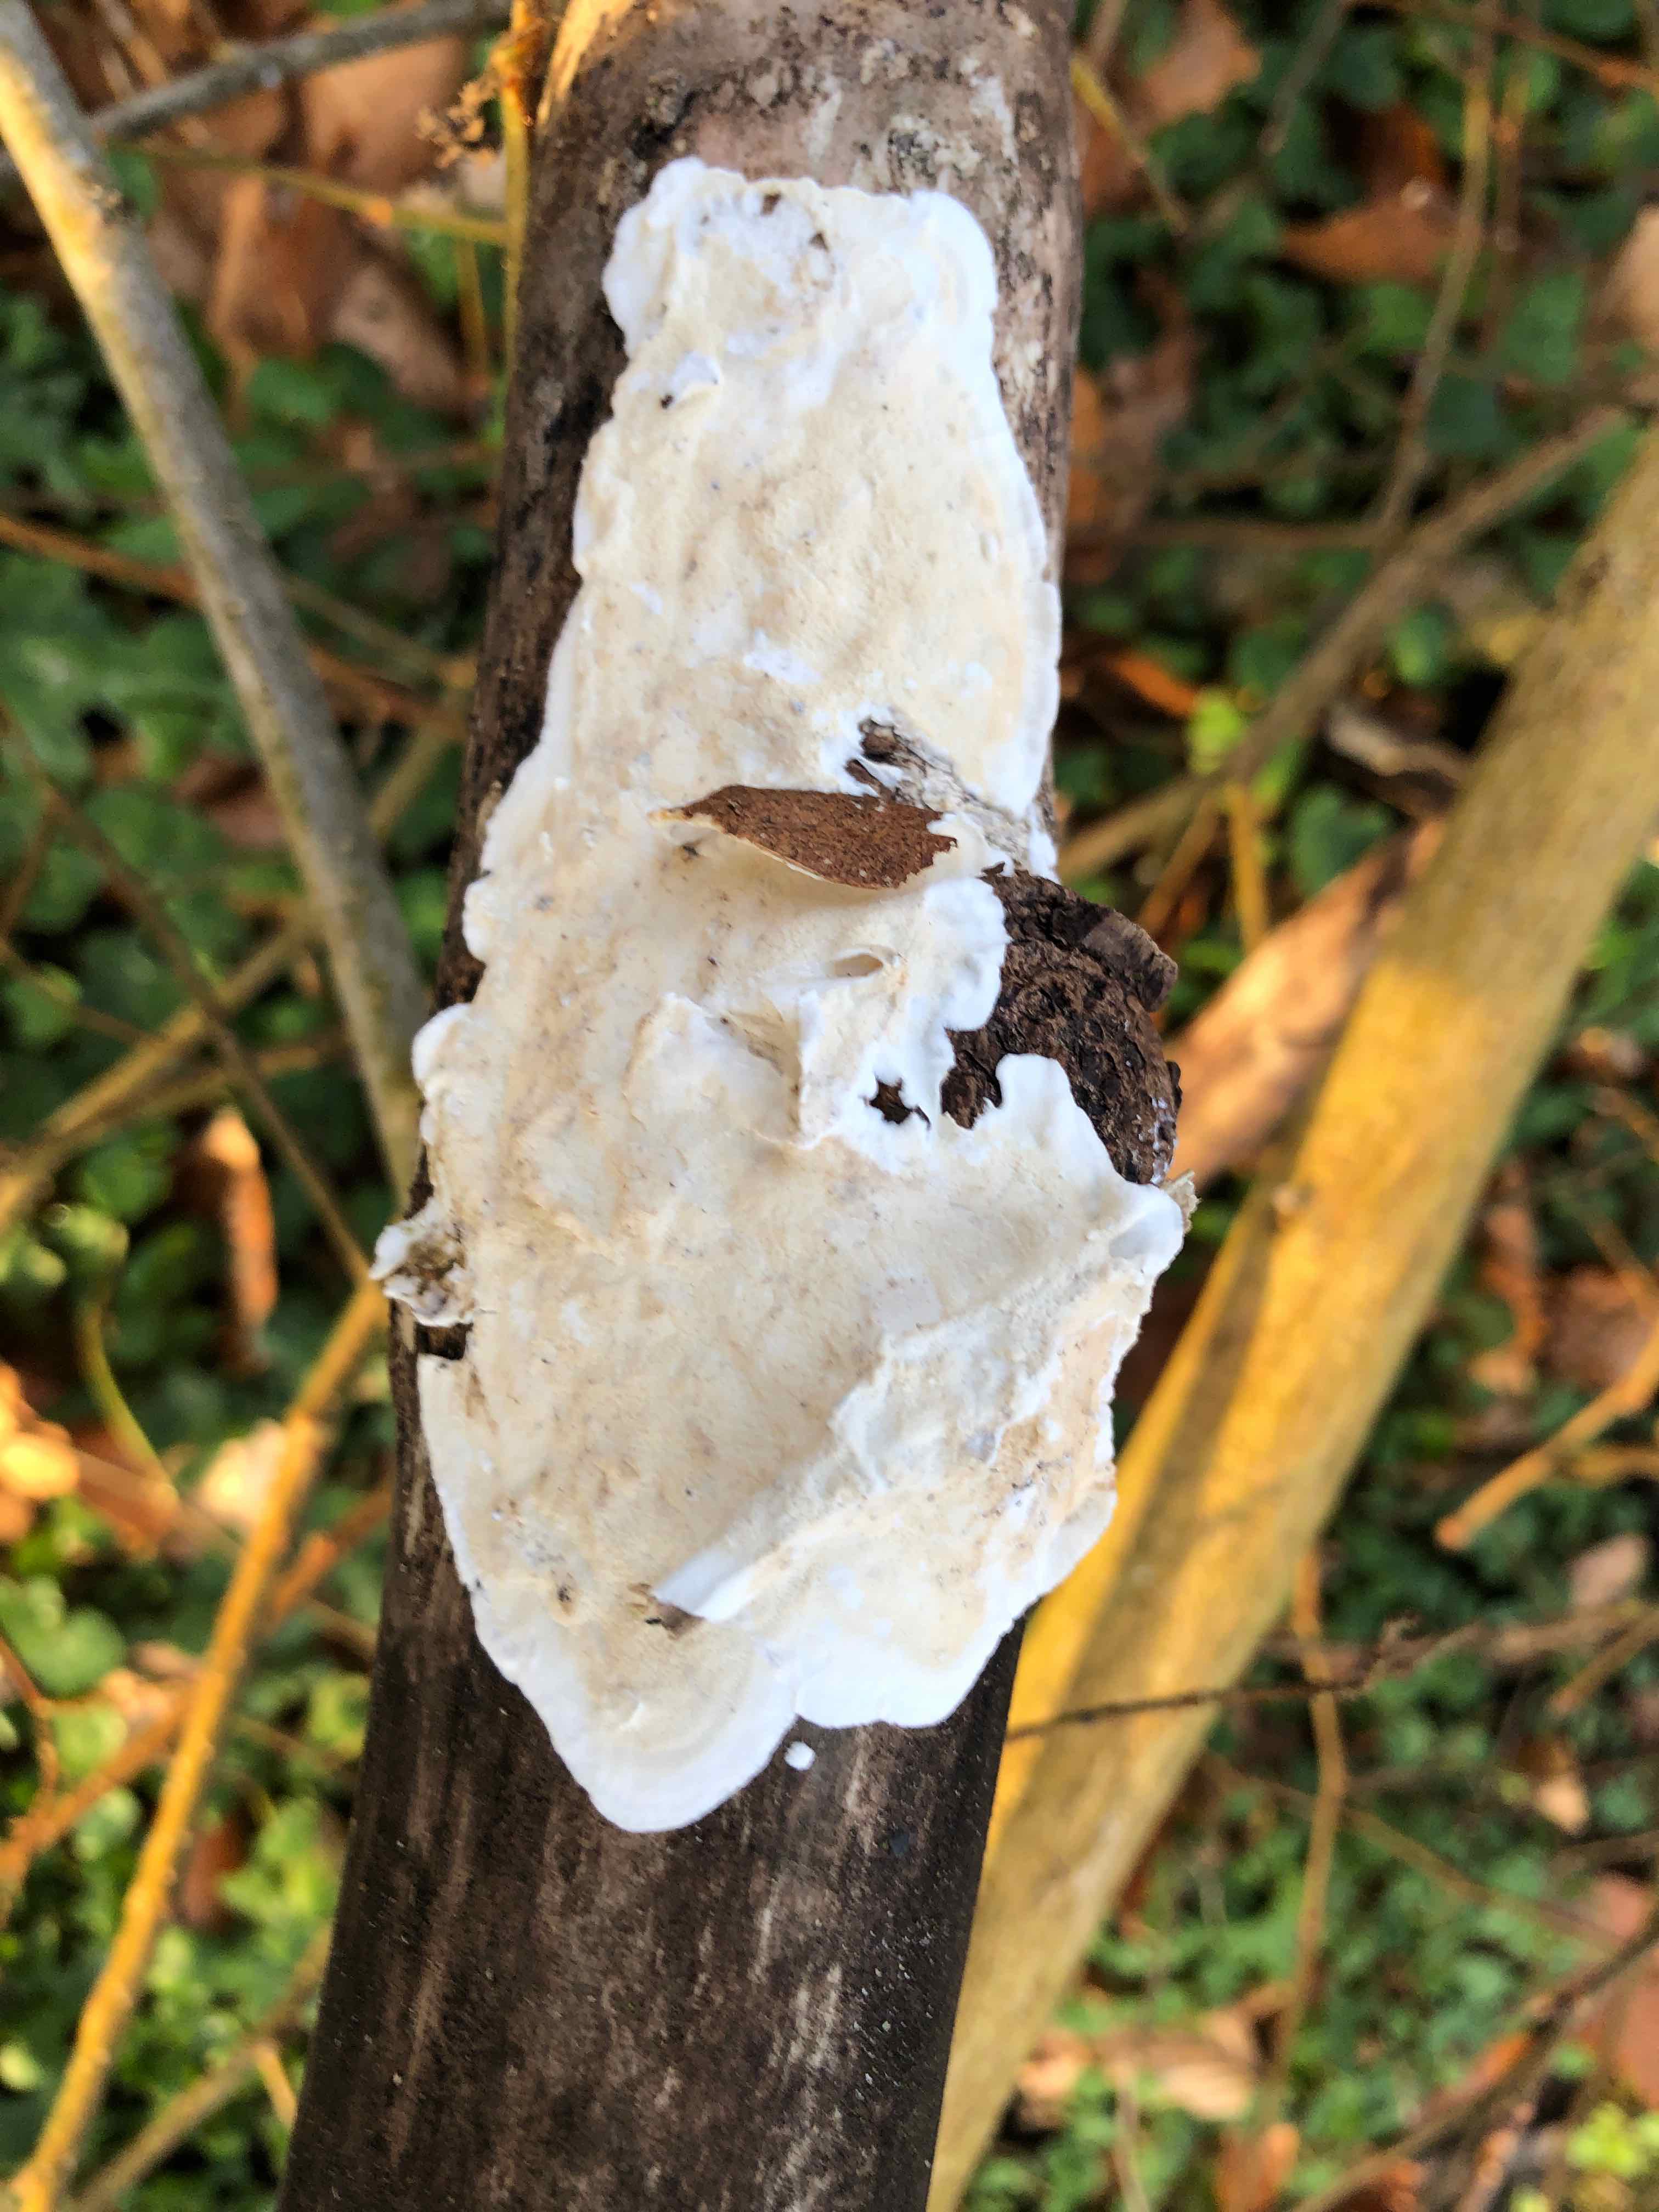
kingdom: Fungi
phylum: Basidiomycota
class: Agaricomycetes
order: Polyporales
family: Irpicaceae
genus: Byssomerulius
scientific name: Byssomerulius corium
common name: læder-åresvamp
